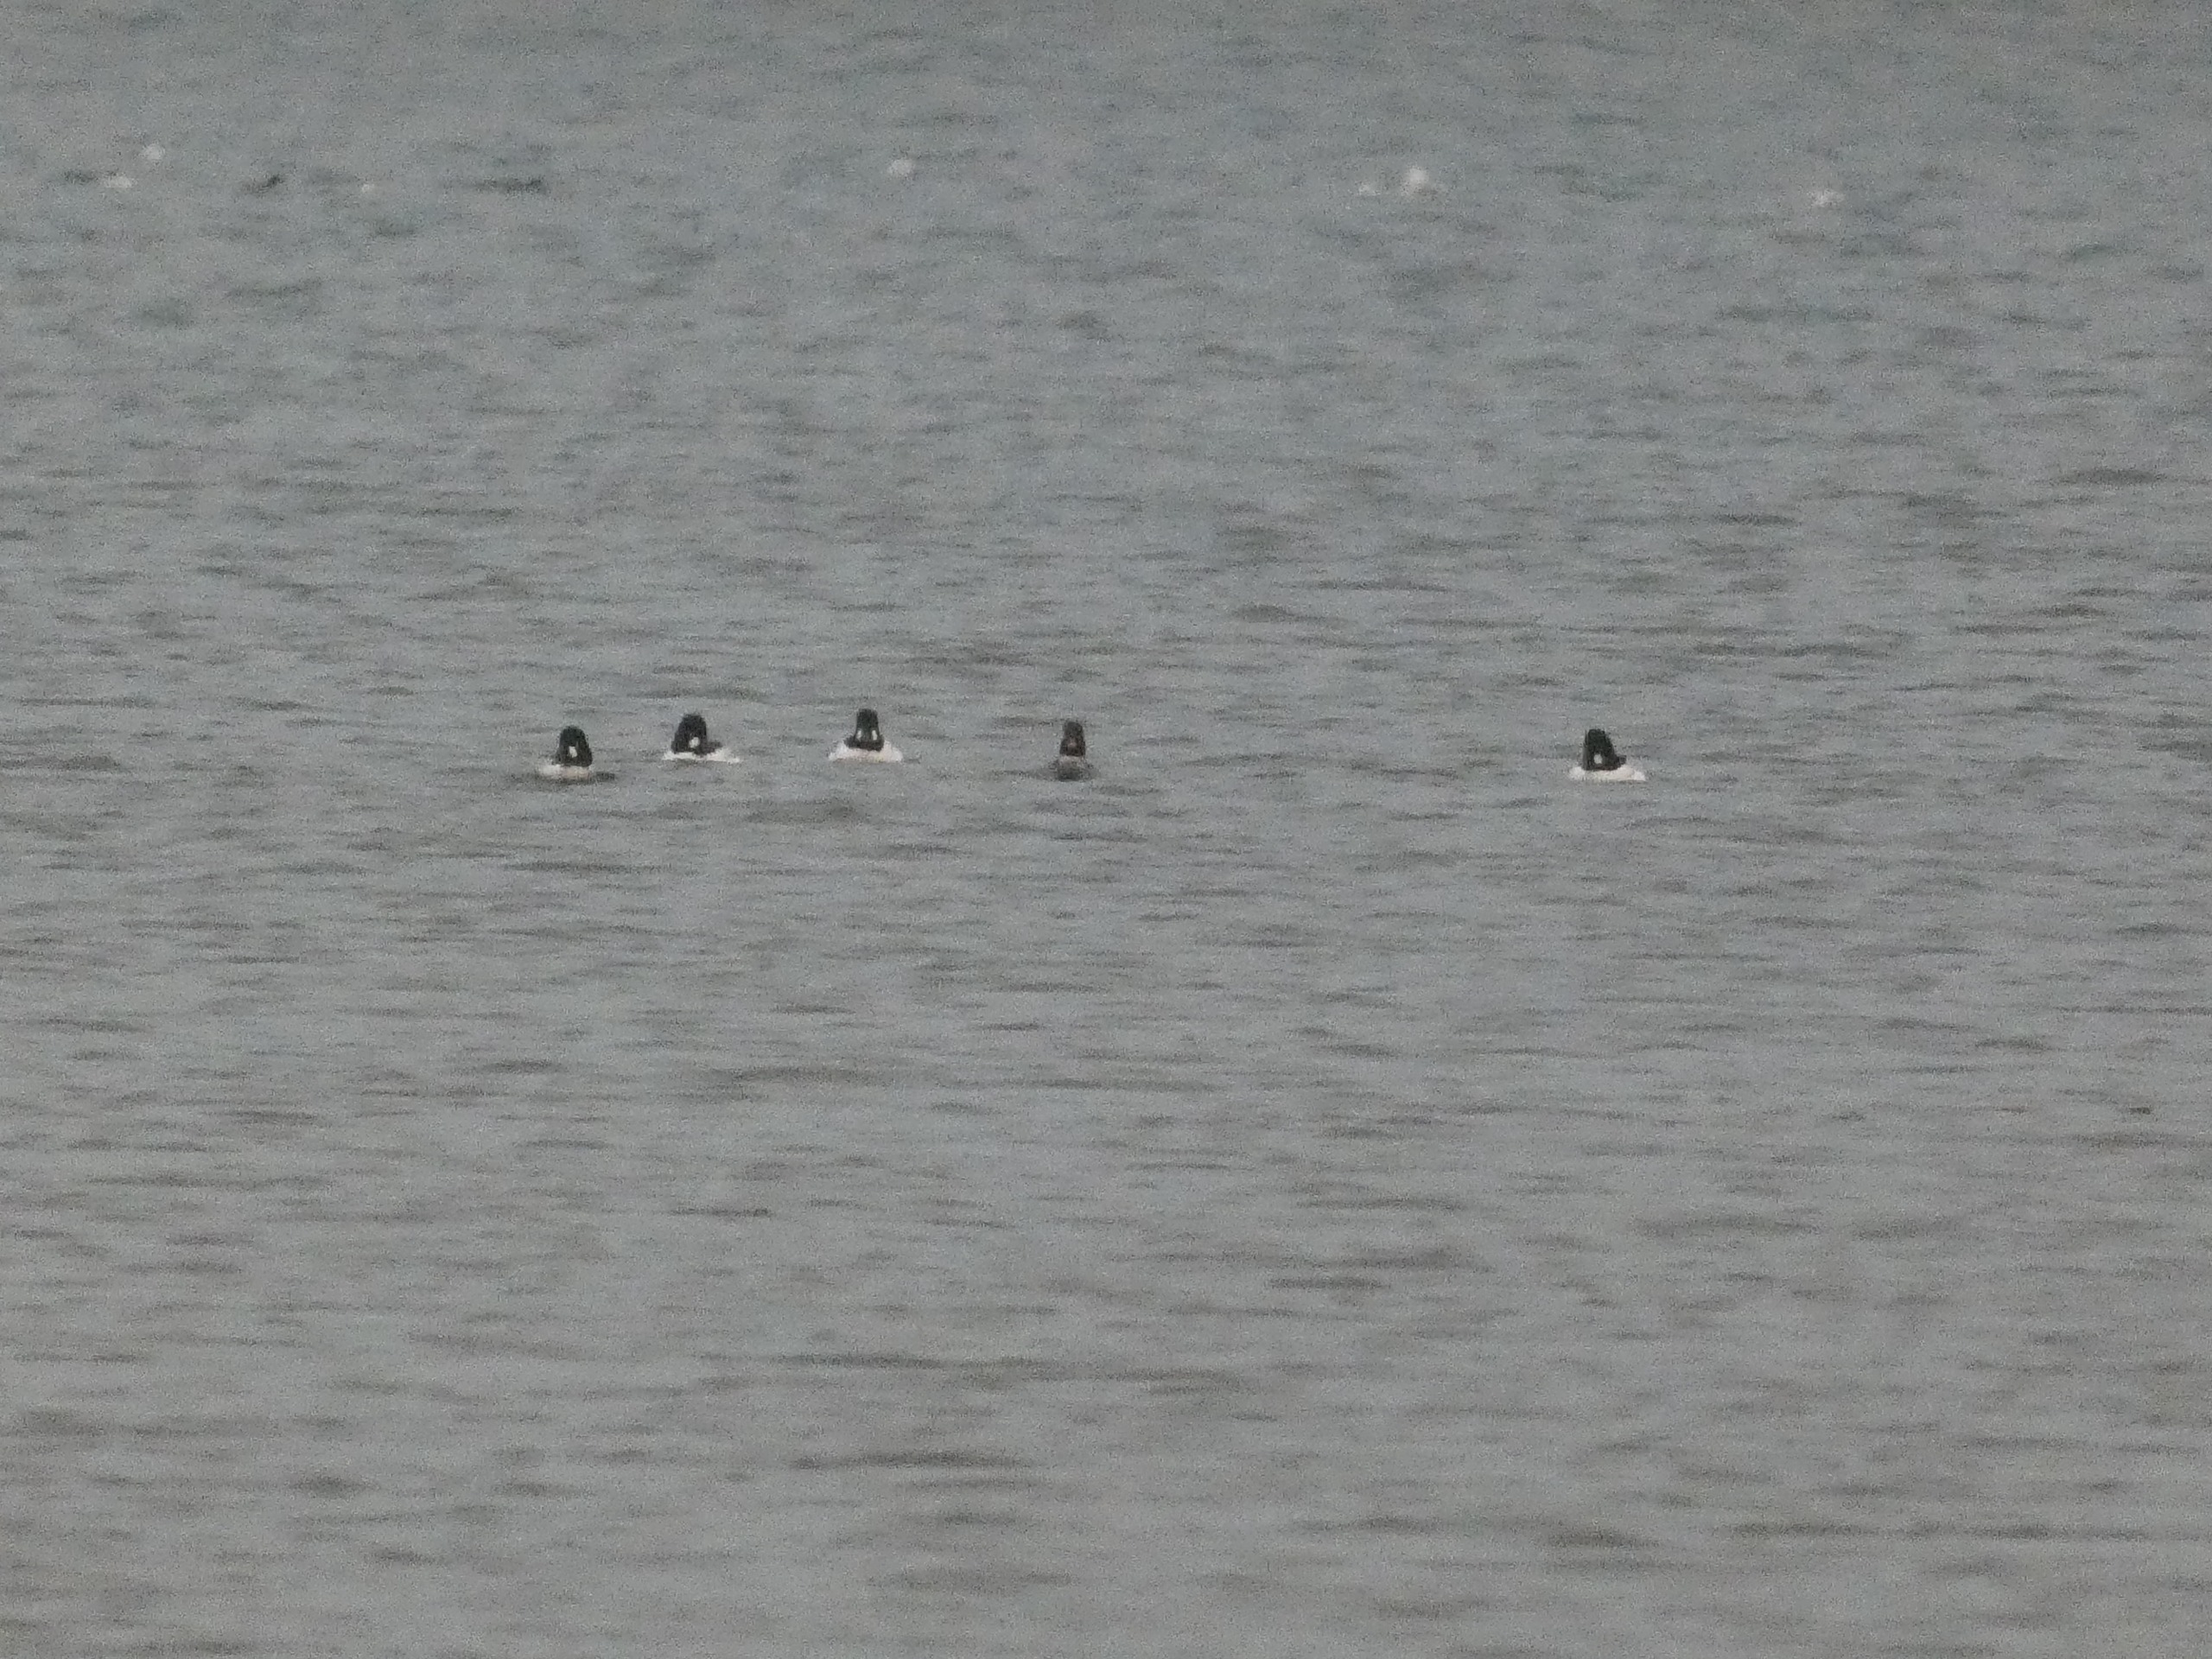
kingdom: Animalia
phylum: Chordata
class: Aves
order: Anseriformes
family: Anatidae
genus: Bucephala
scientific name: Bucephala clangula
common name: Hvinand
